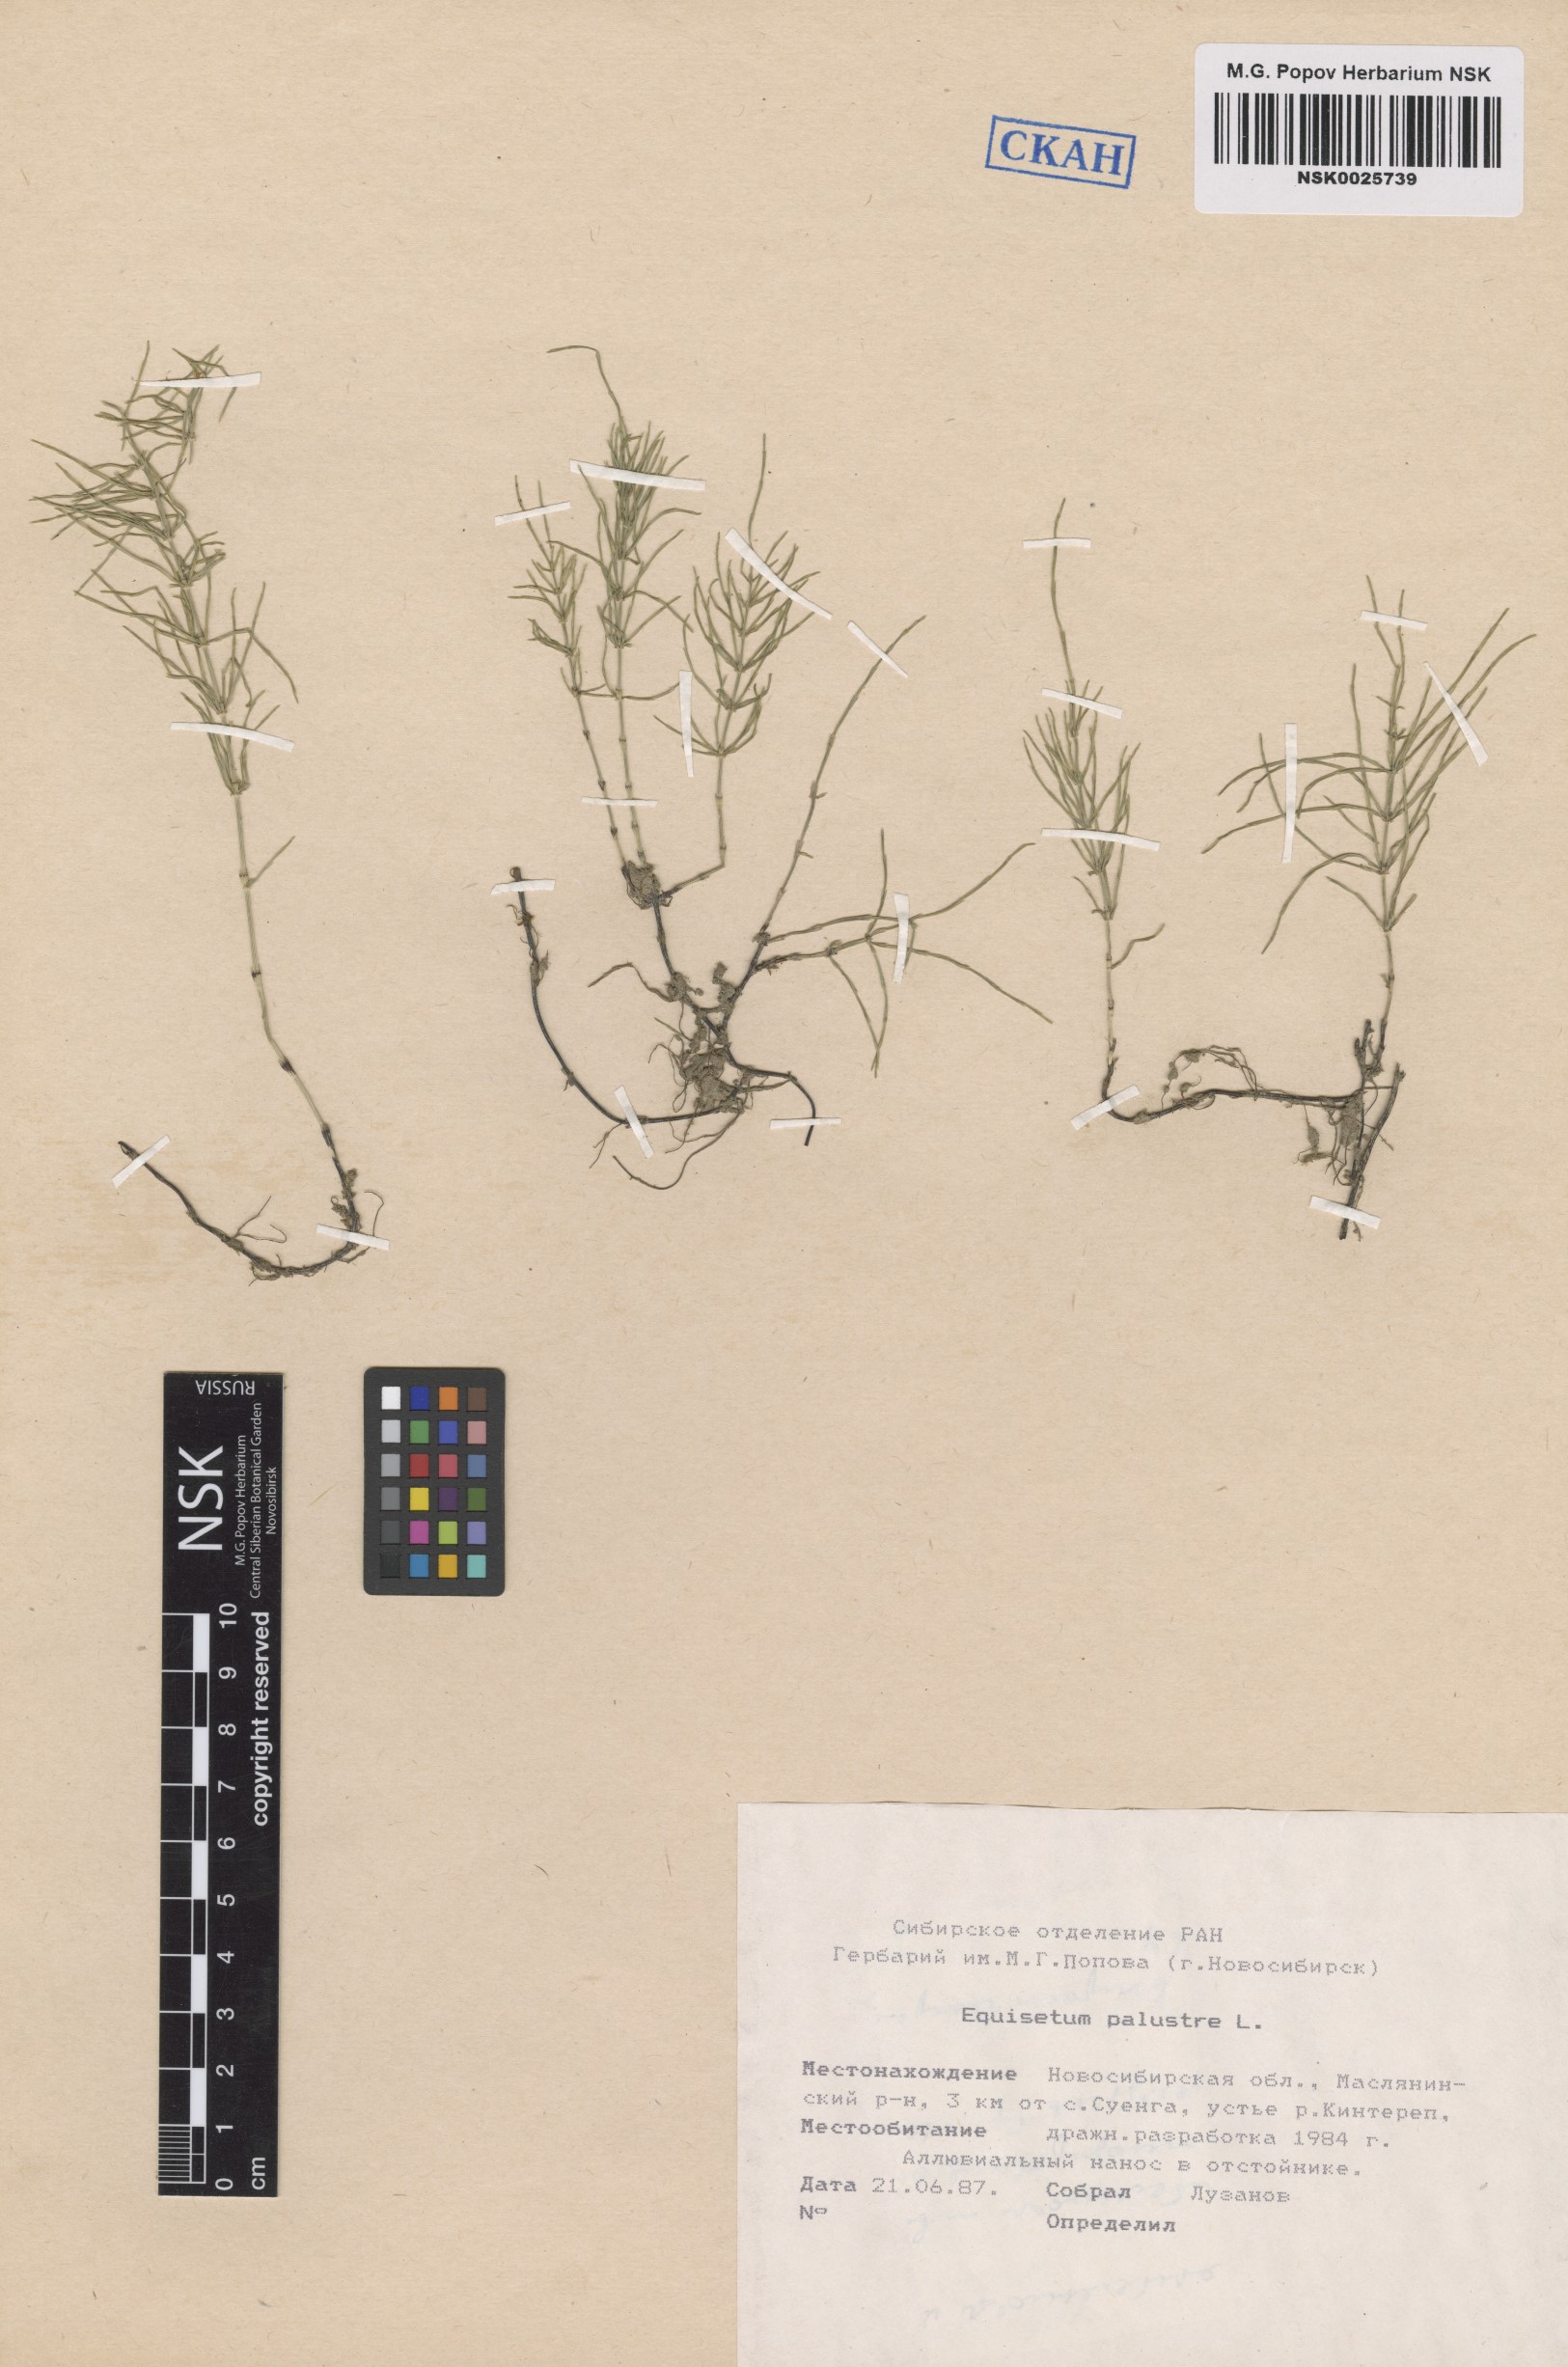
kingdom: Plantae
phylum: Tracheophyta
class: Polypodiopsida
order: Equisetales
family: Equisetaceae
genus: Equisetum
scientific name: Equisetum palustre
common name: Marsh horsetail
